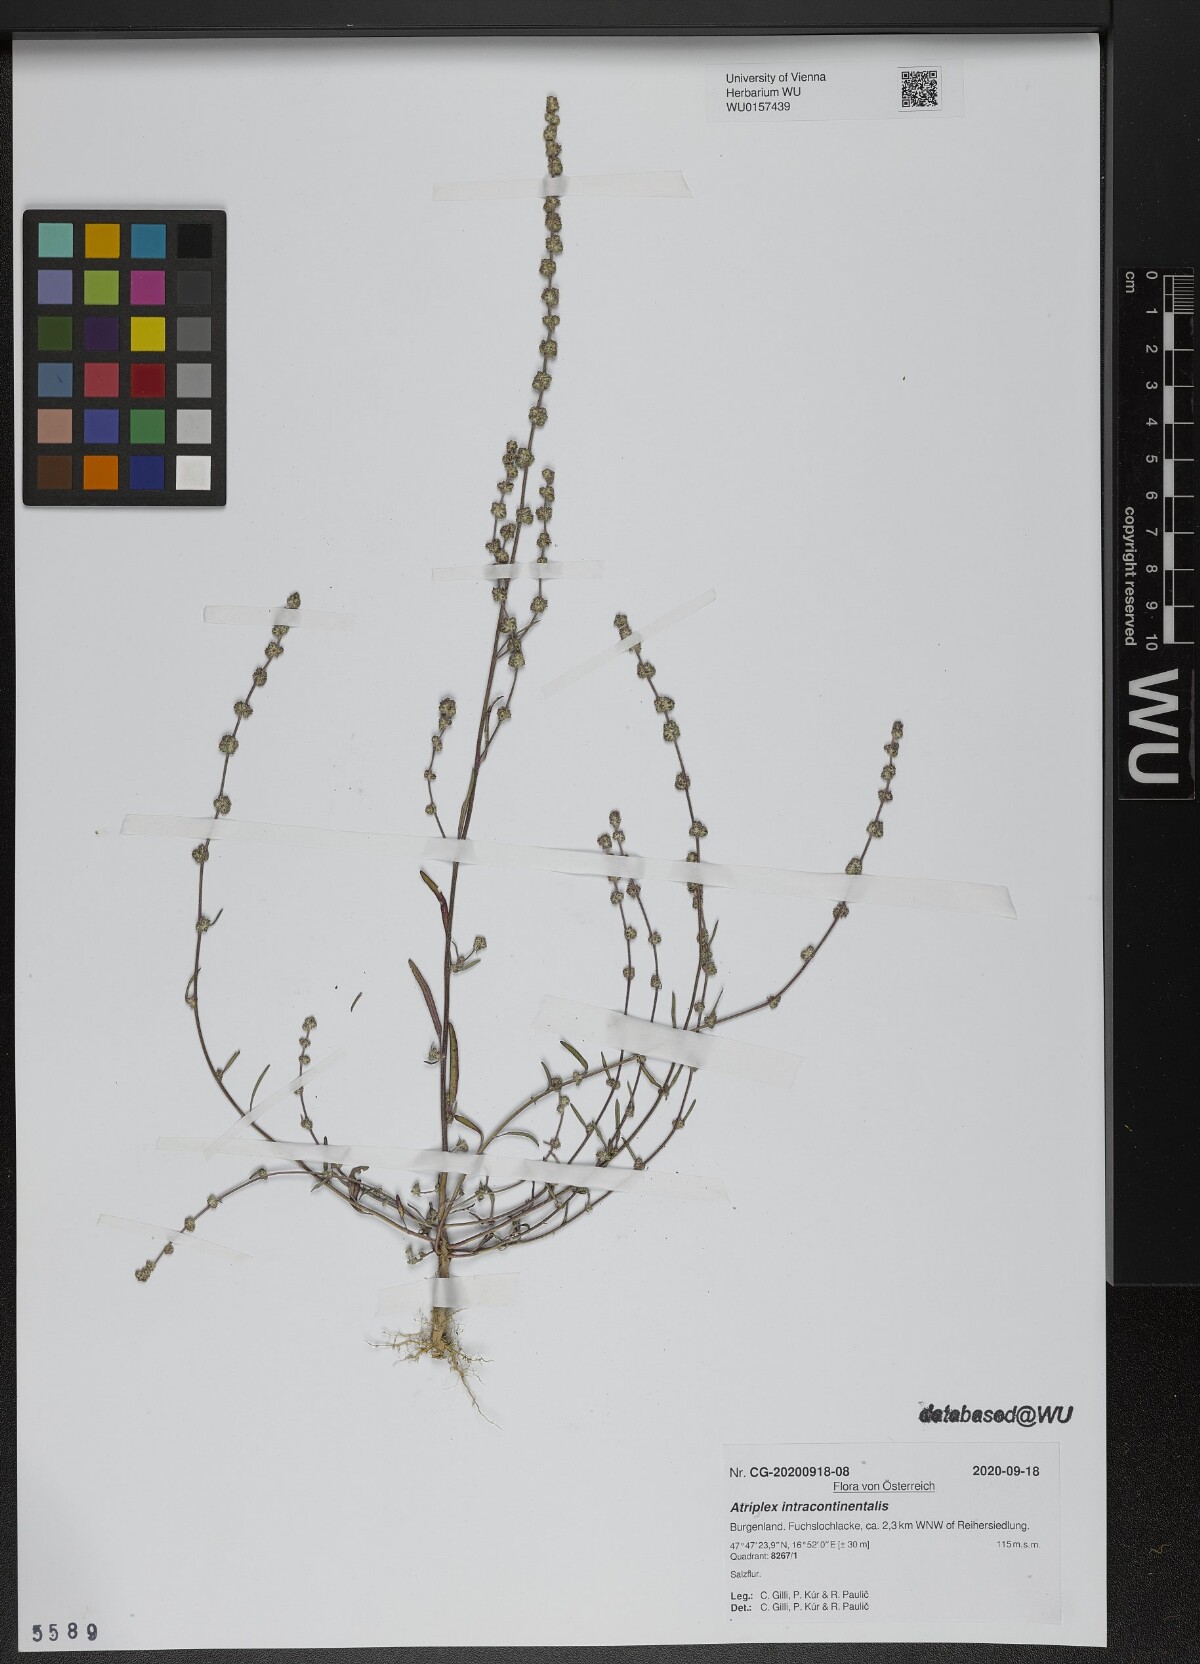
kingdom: Plantae
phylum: Tracheophyta
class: Magnoliopsida
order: Caryophyllales
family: Amaranthaceae
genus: Atriplex
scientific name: Atriplex intracontinentalis
